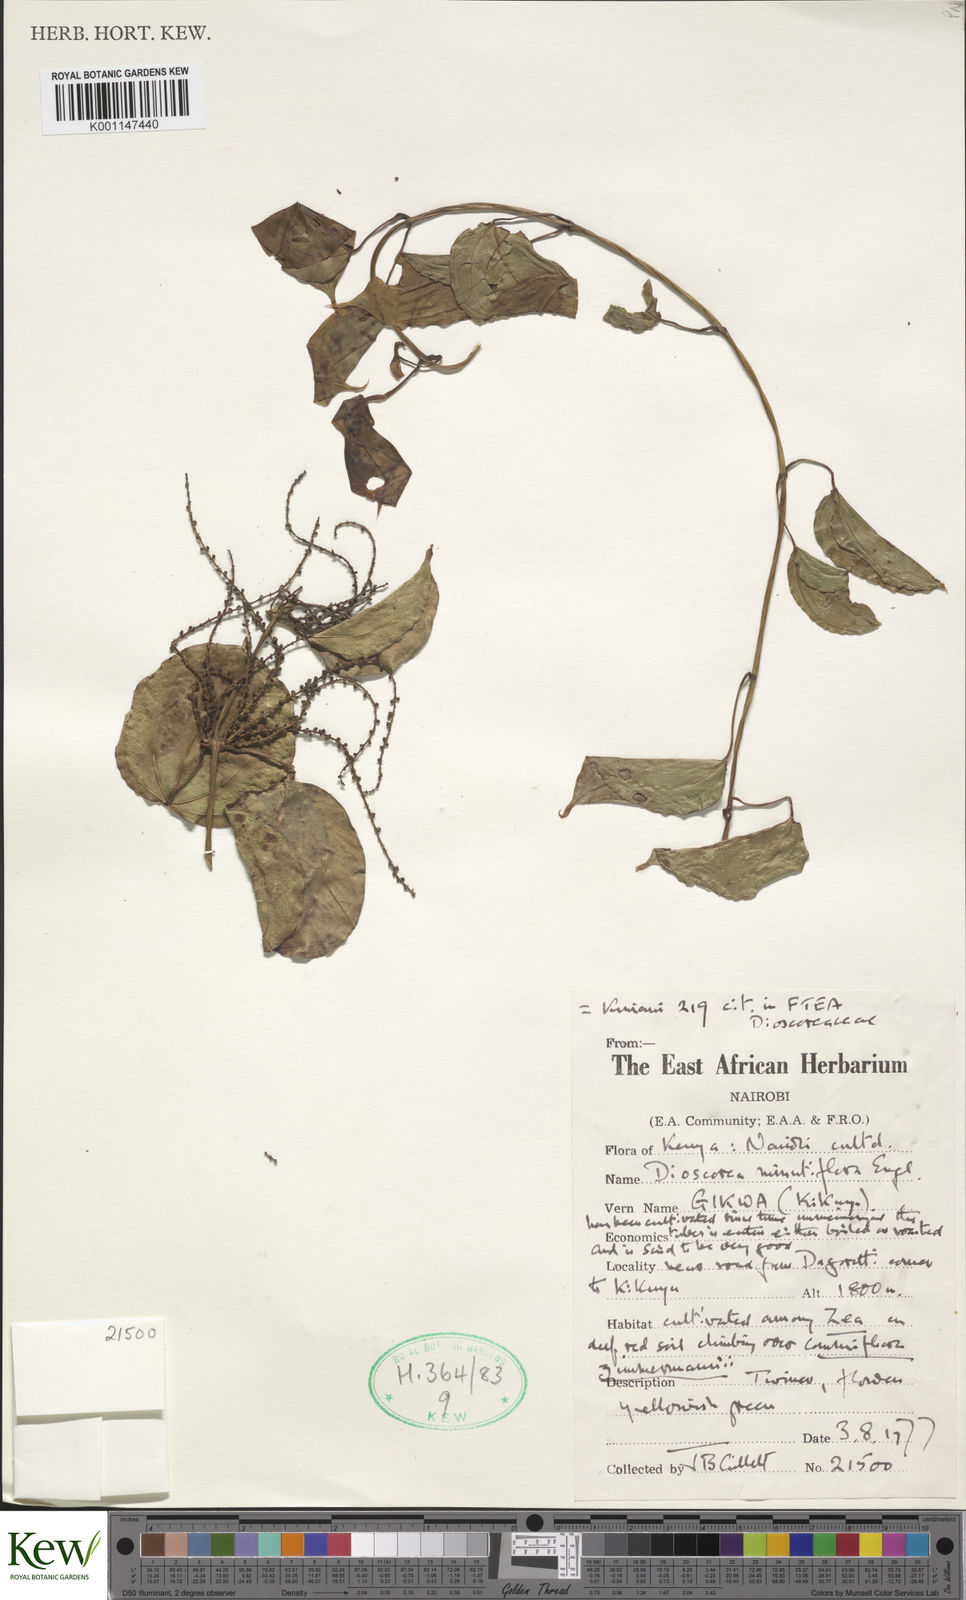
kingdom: Plantae
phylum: Tracheophyta
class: Liliopsida
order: Dioscoreales
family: Dioscoreaceae
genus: Dioscorea
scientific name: Dioscorea minutiflora
